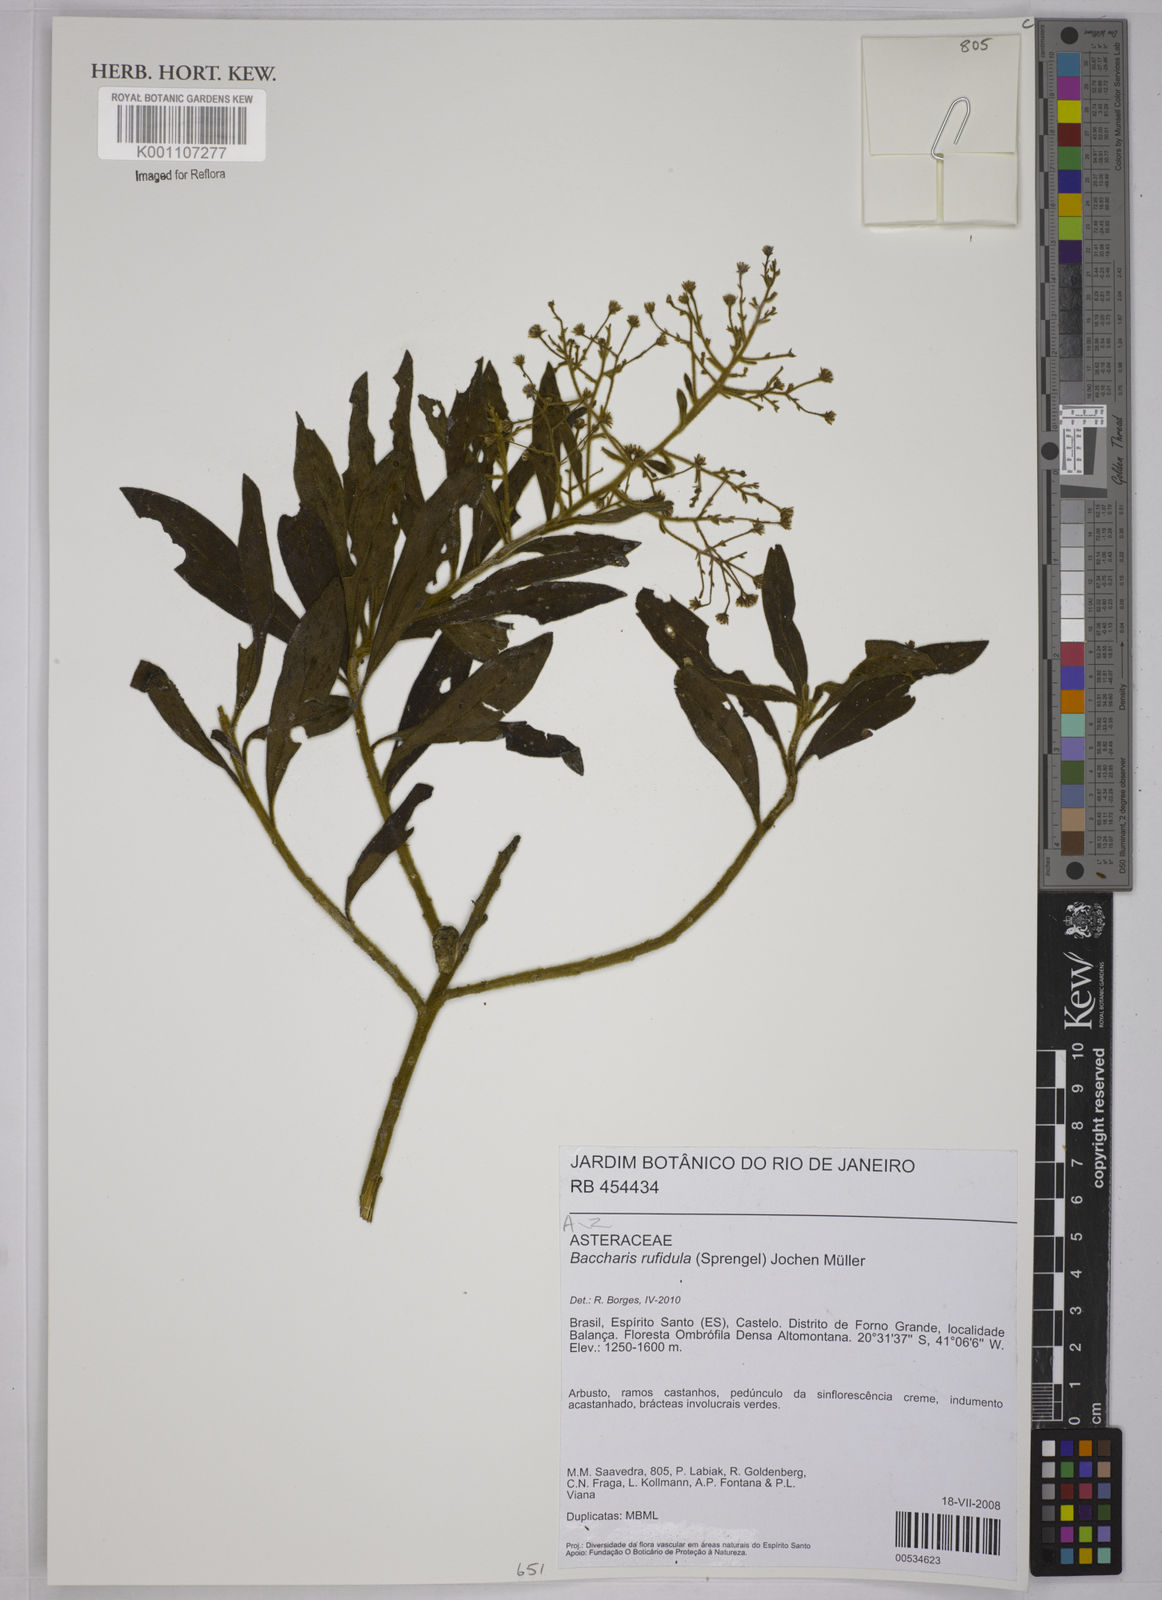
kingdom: Plantae
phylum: Tracheophyta
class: Magnoliopsida
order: Asterales
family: Asteraceae
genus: Baccharis
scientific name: Baccharis
